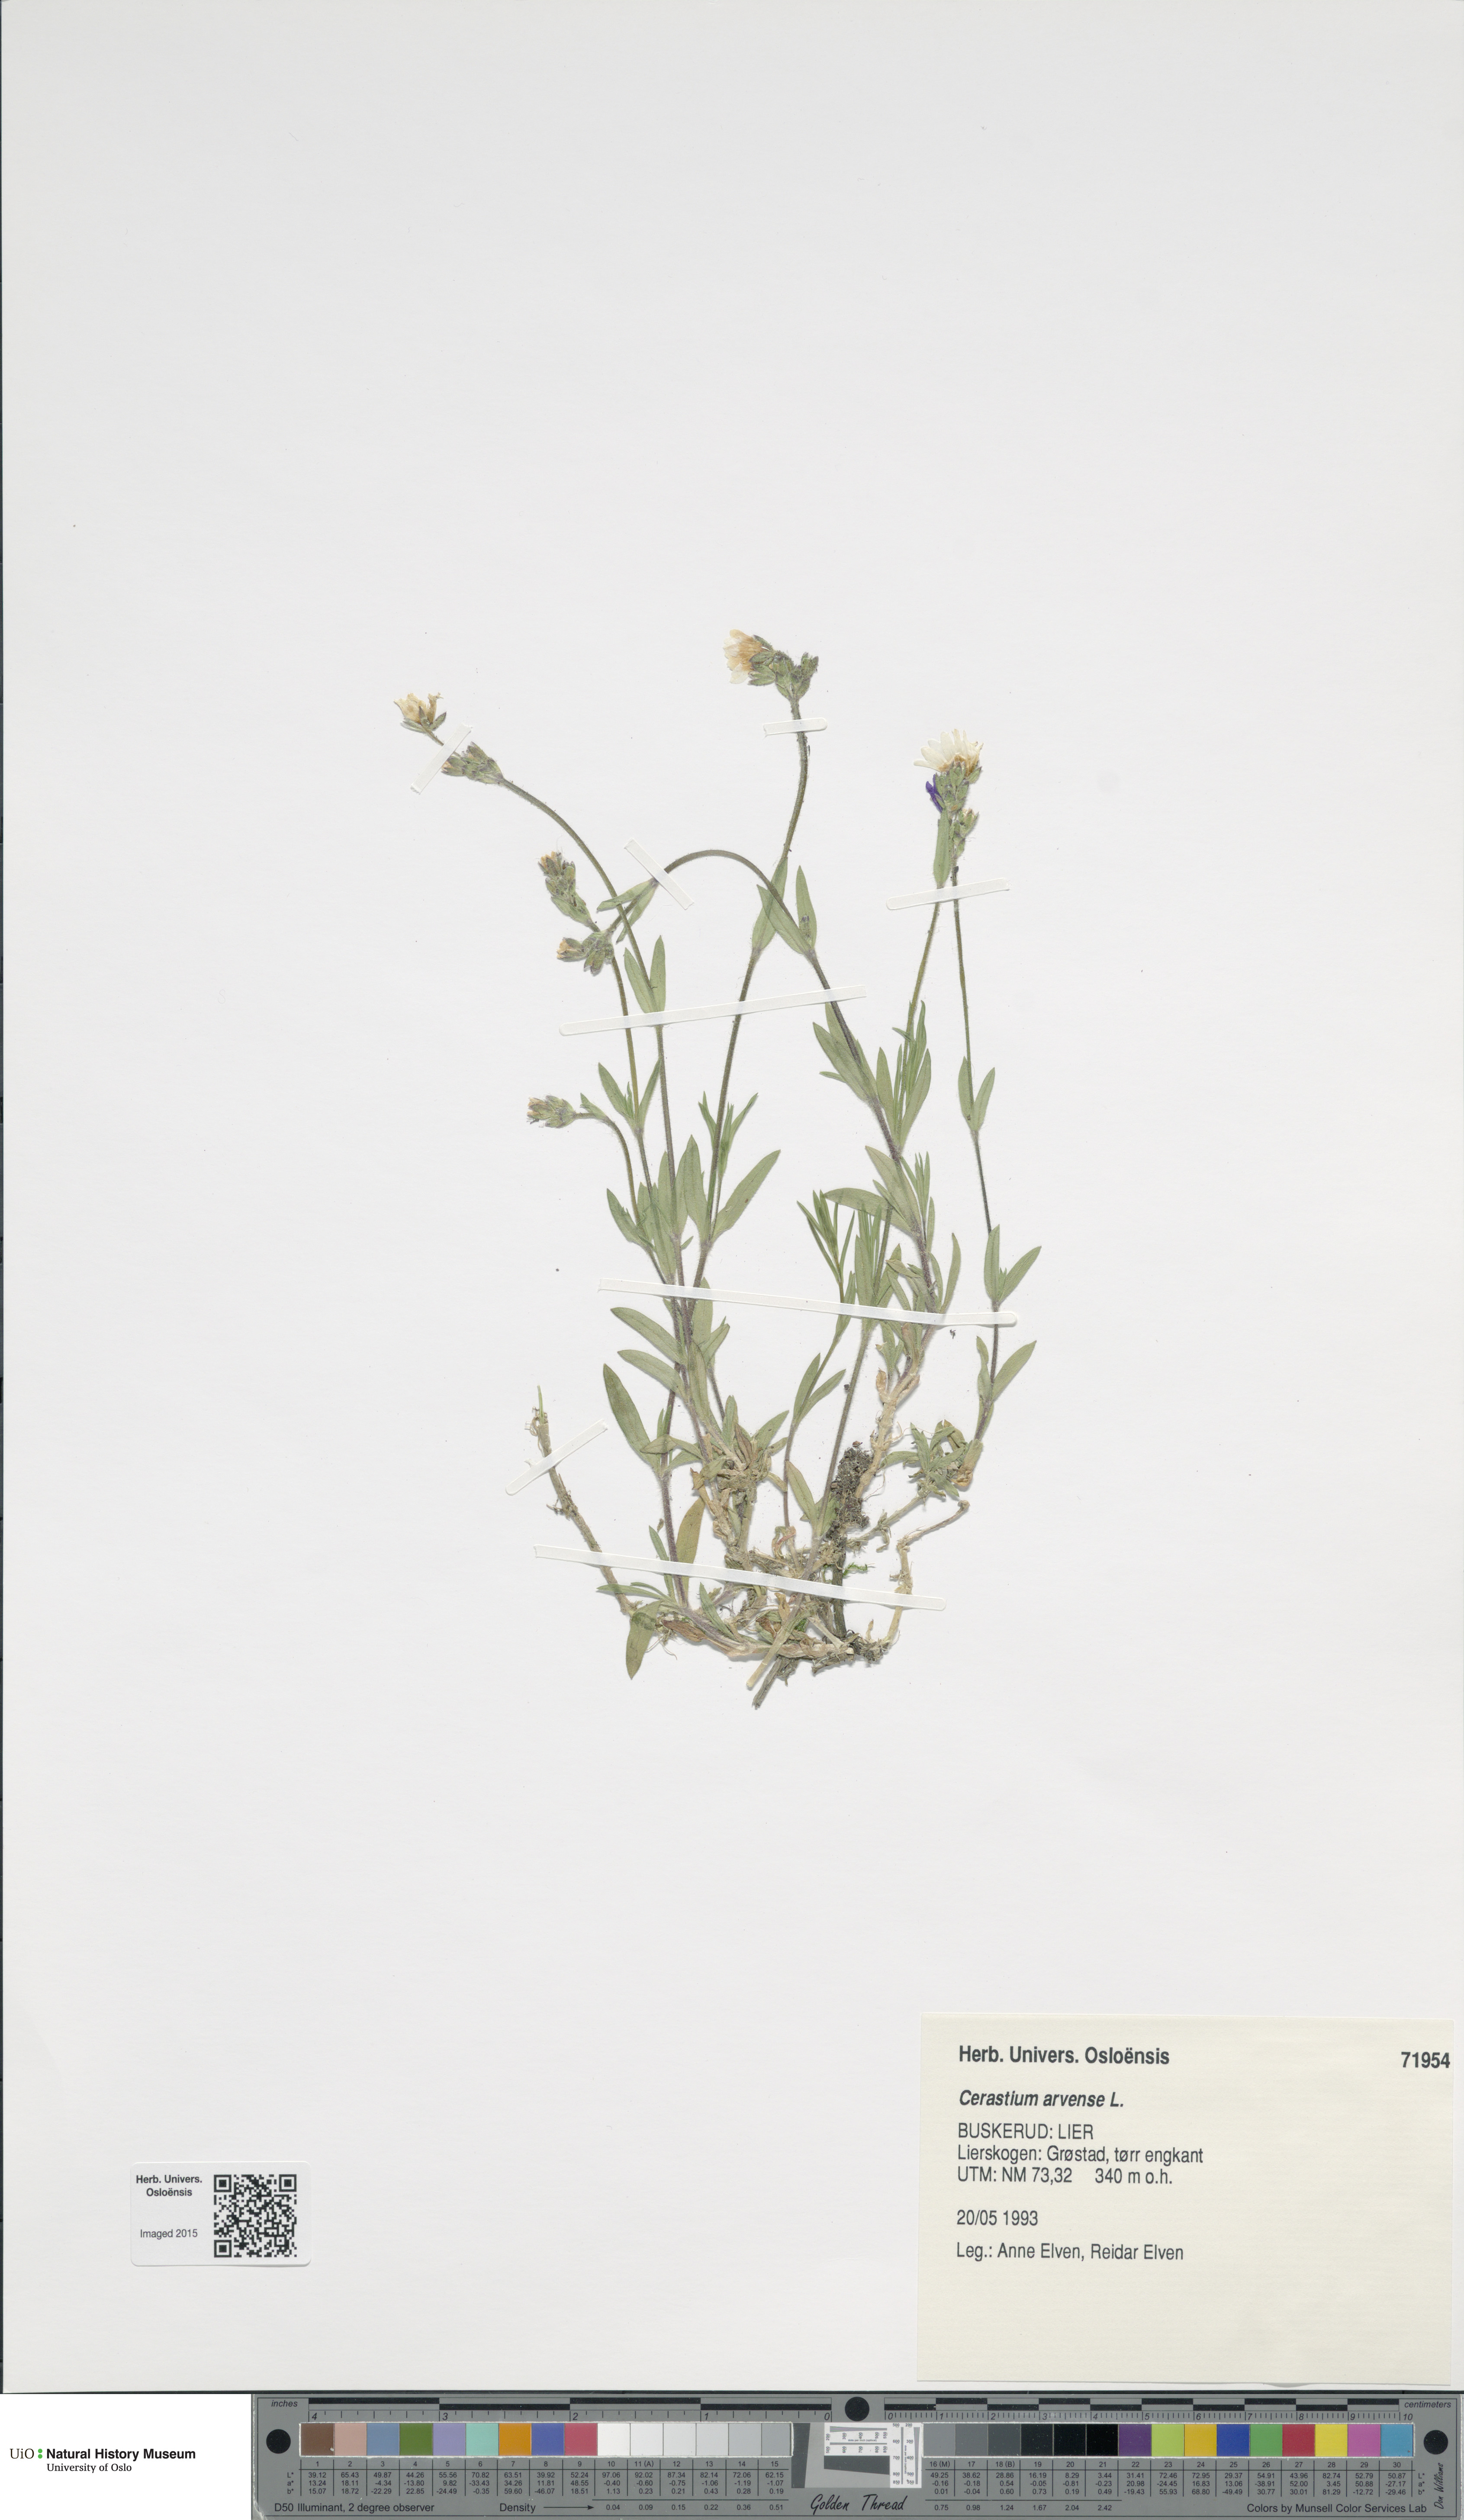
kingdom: Plantae
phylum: Tracheophyta
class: Magnoliopsida
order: Caryophyllales
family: Caryophyllaceae
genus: Cerastium
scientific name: Cerastium arvense
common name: Field mouse-ear
